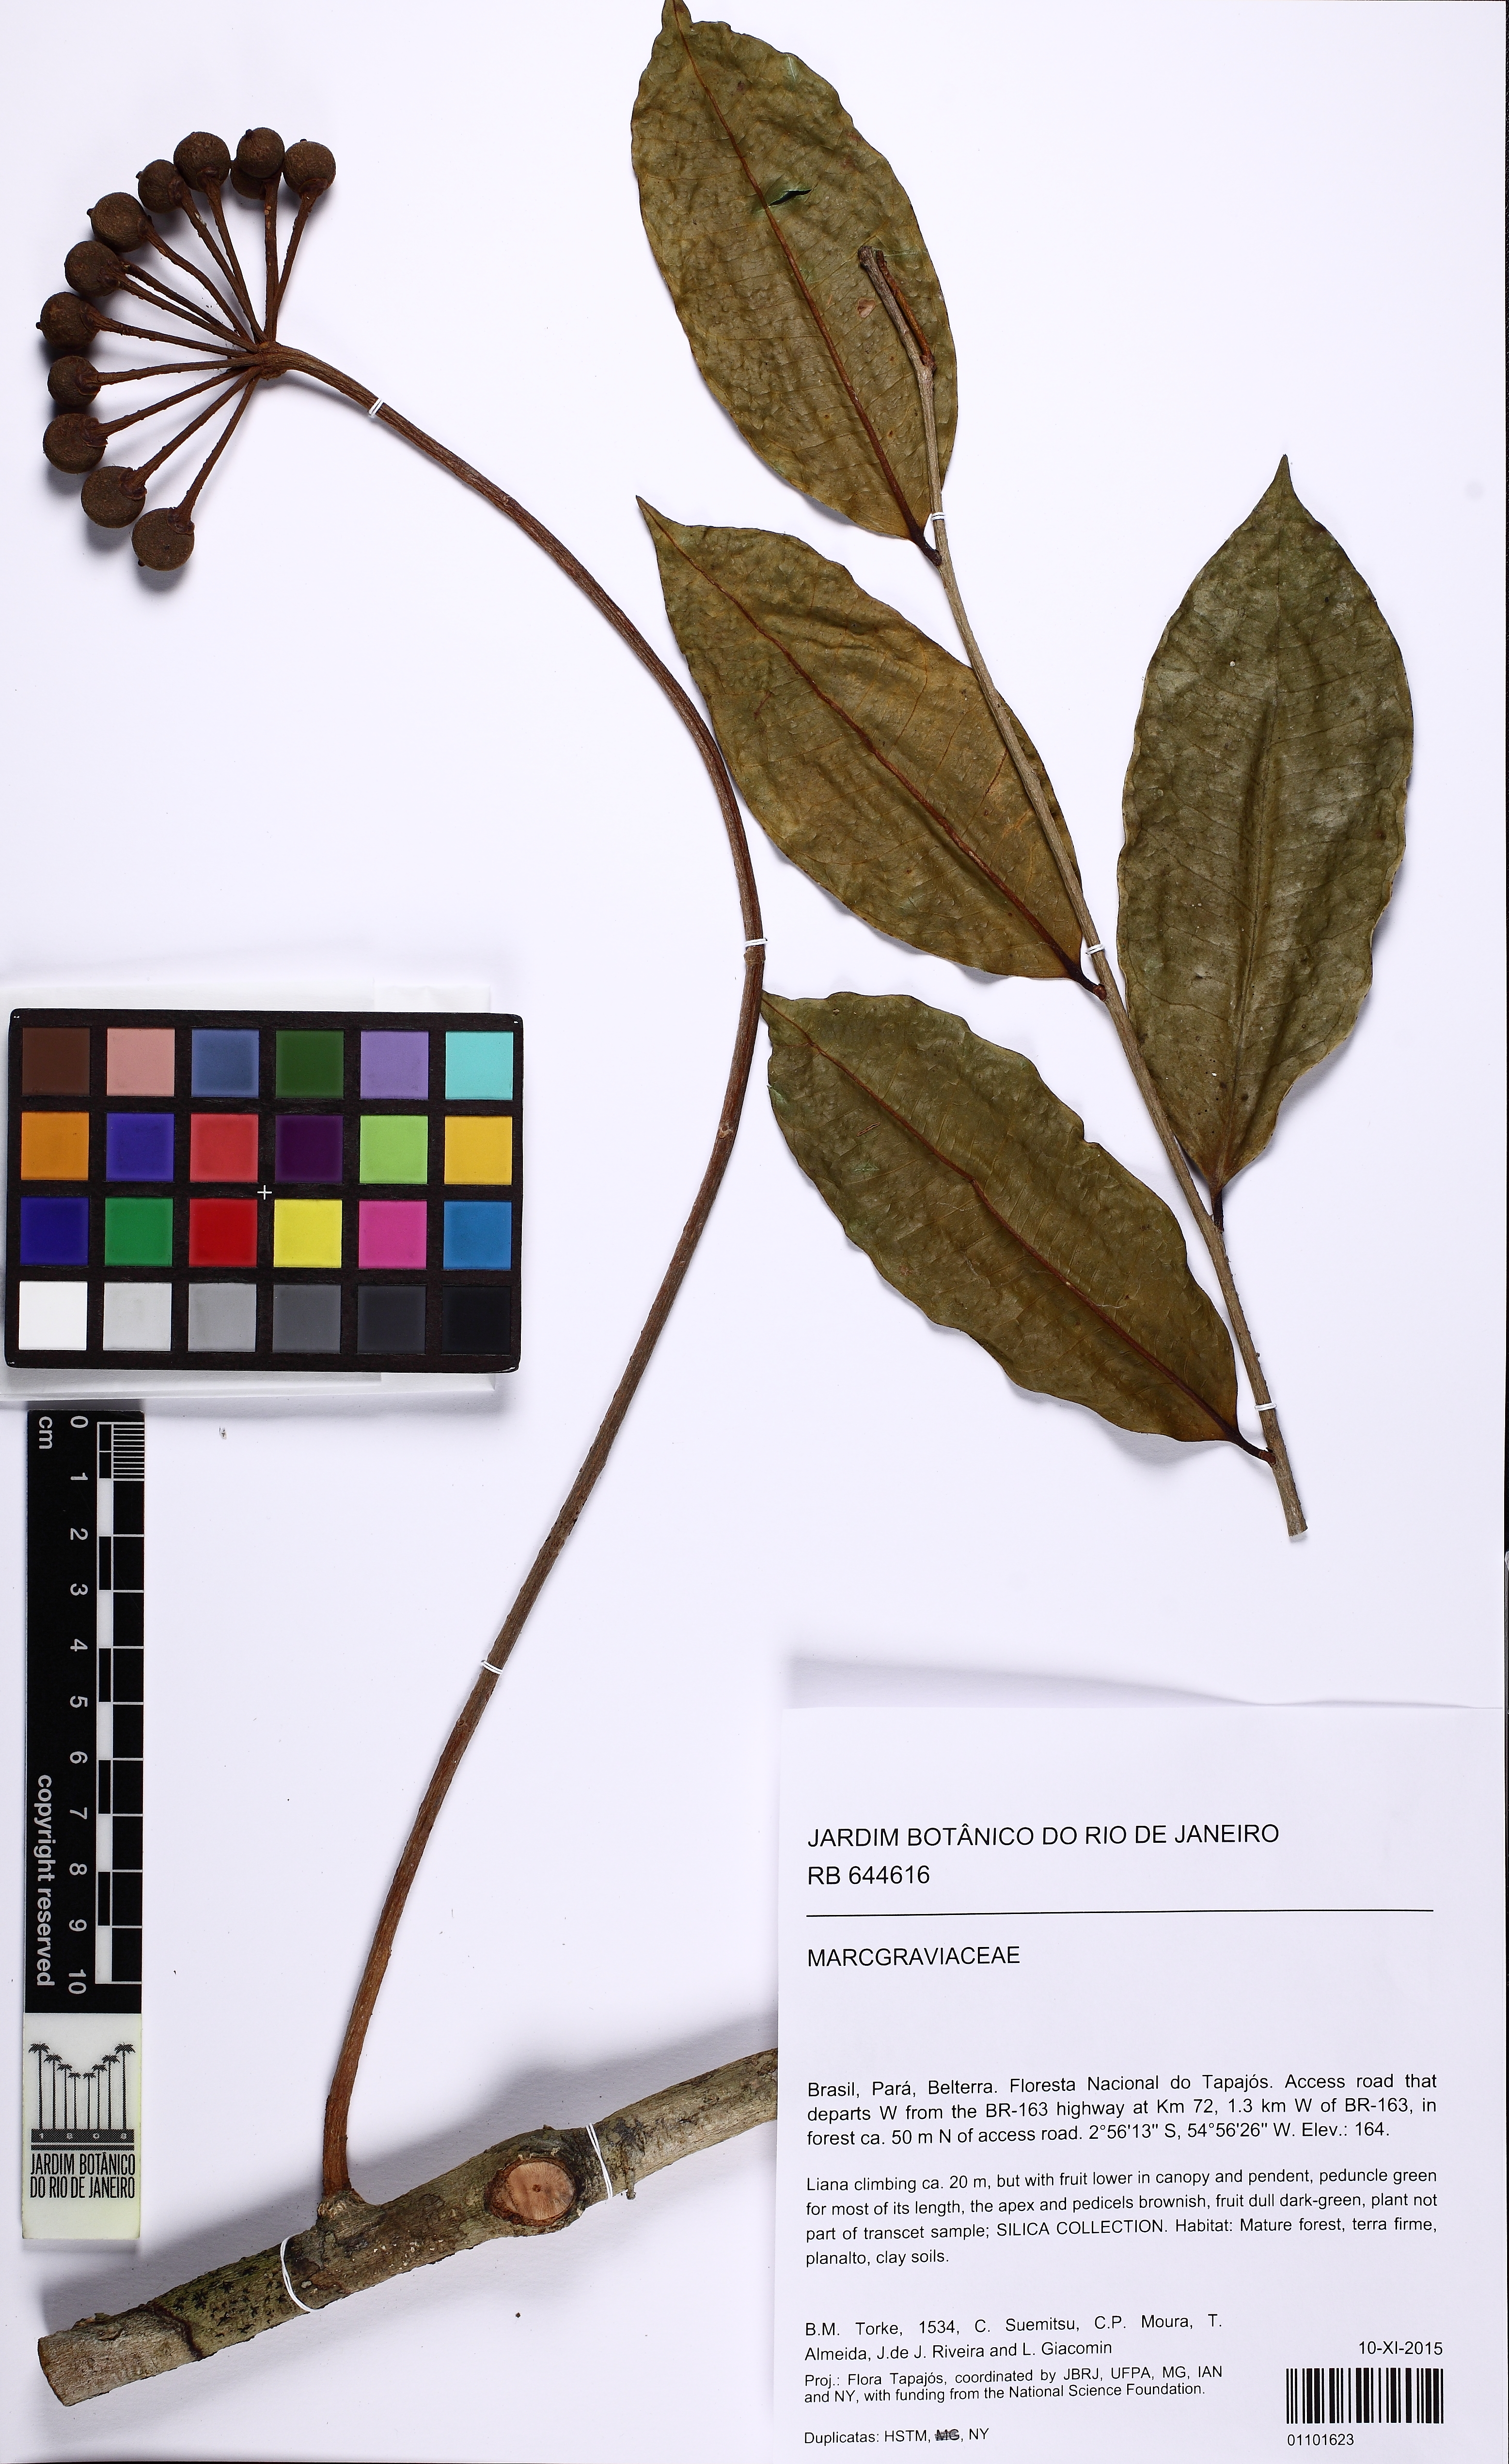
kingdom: Plantae
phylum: Tracheophyta
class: Magnoliopsida
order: Ericales
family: Marcgraviaceae
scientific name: Marcgraviaceae
